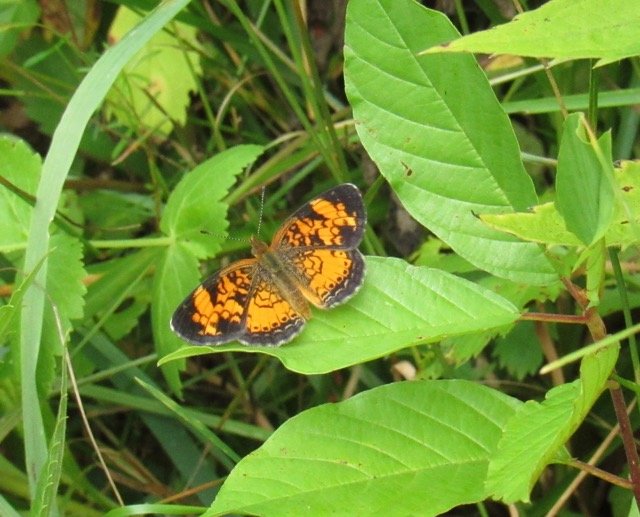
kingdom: Animalia
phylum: Arthropoda
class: Insecta
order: Lepidoptera
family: Nymphalidae
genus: Phyciodes
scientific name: Phyciodes tharos
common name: Pearl Crescent
